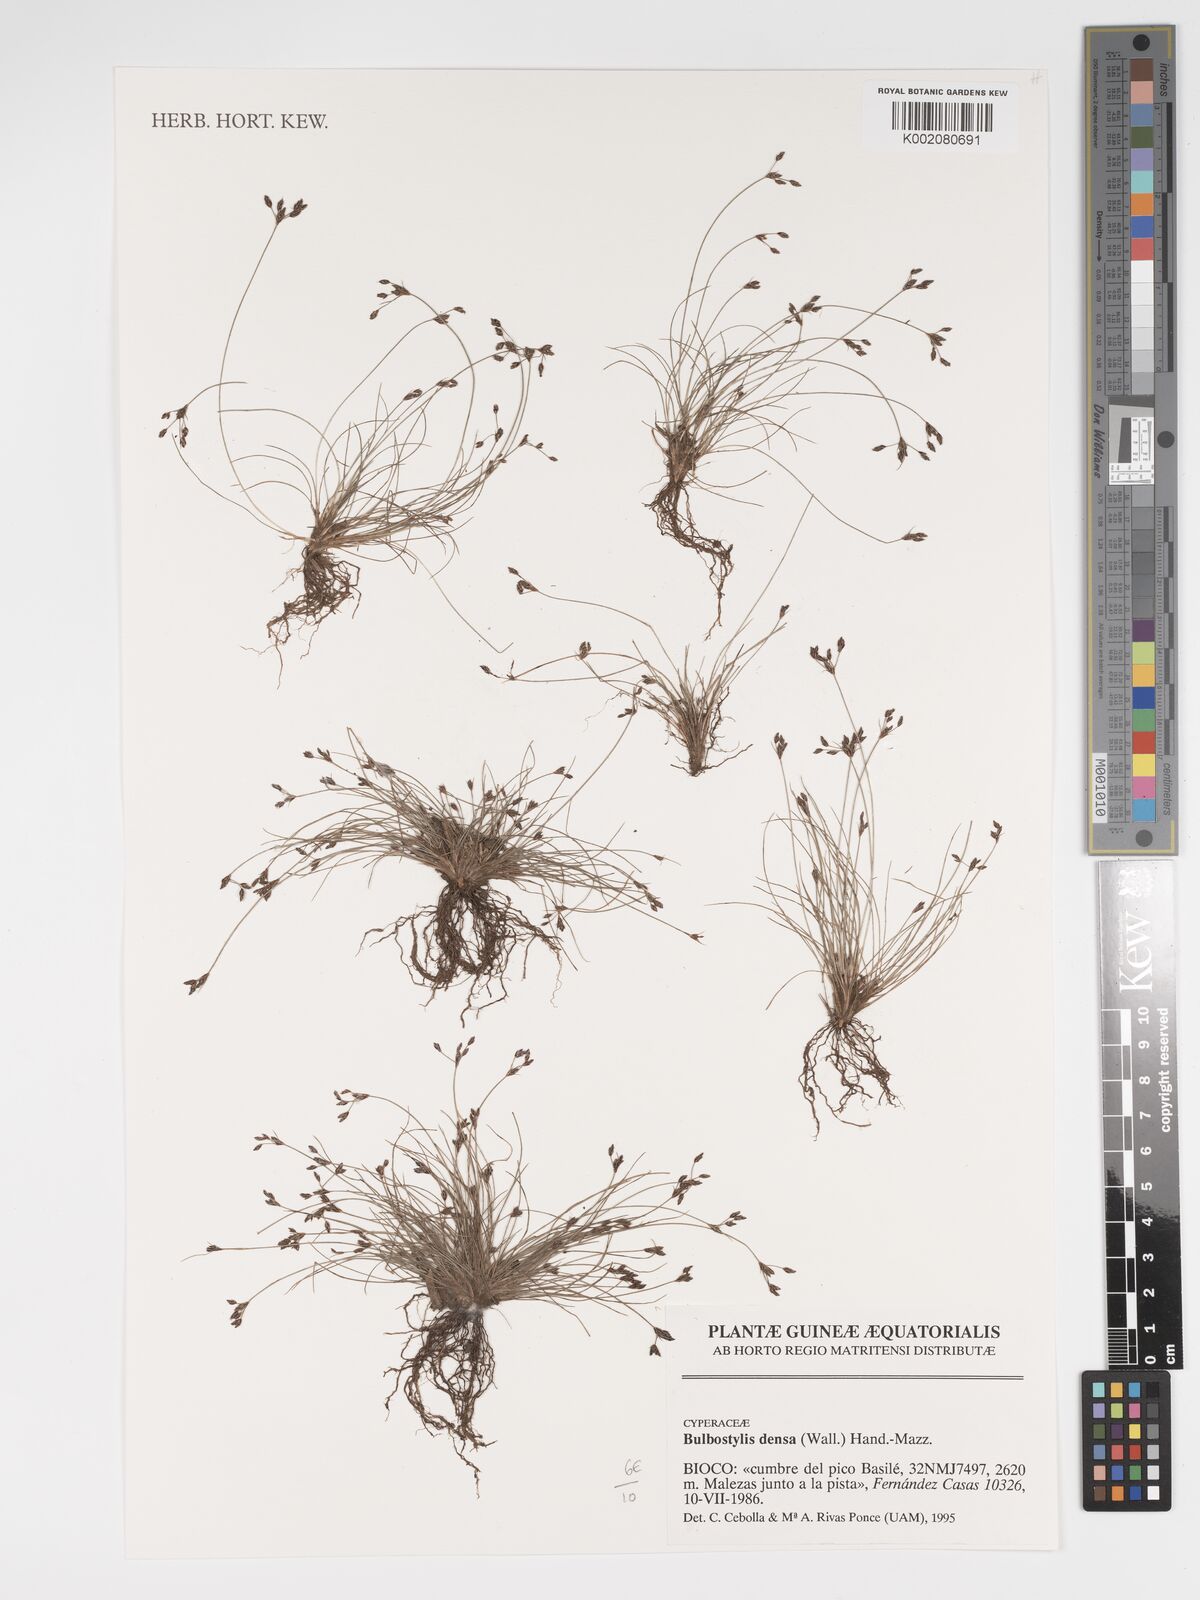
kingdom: Plantae
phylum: Tracheophyta
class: Liliopsida
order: Poales
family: Cyperaceae
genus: Bulbostylis
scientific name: Bulbostylis densa
